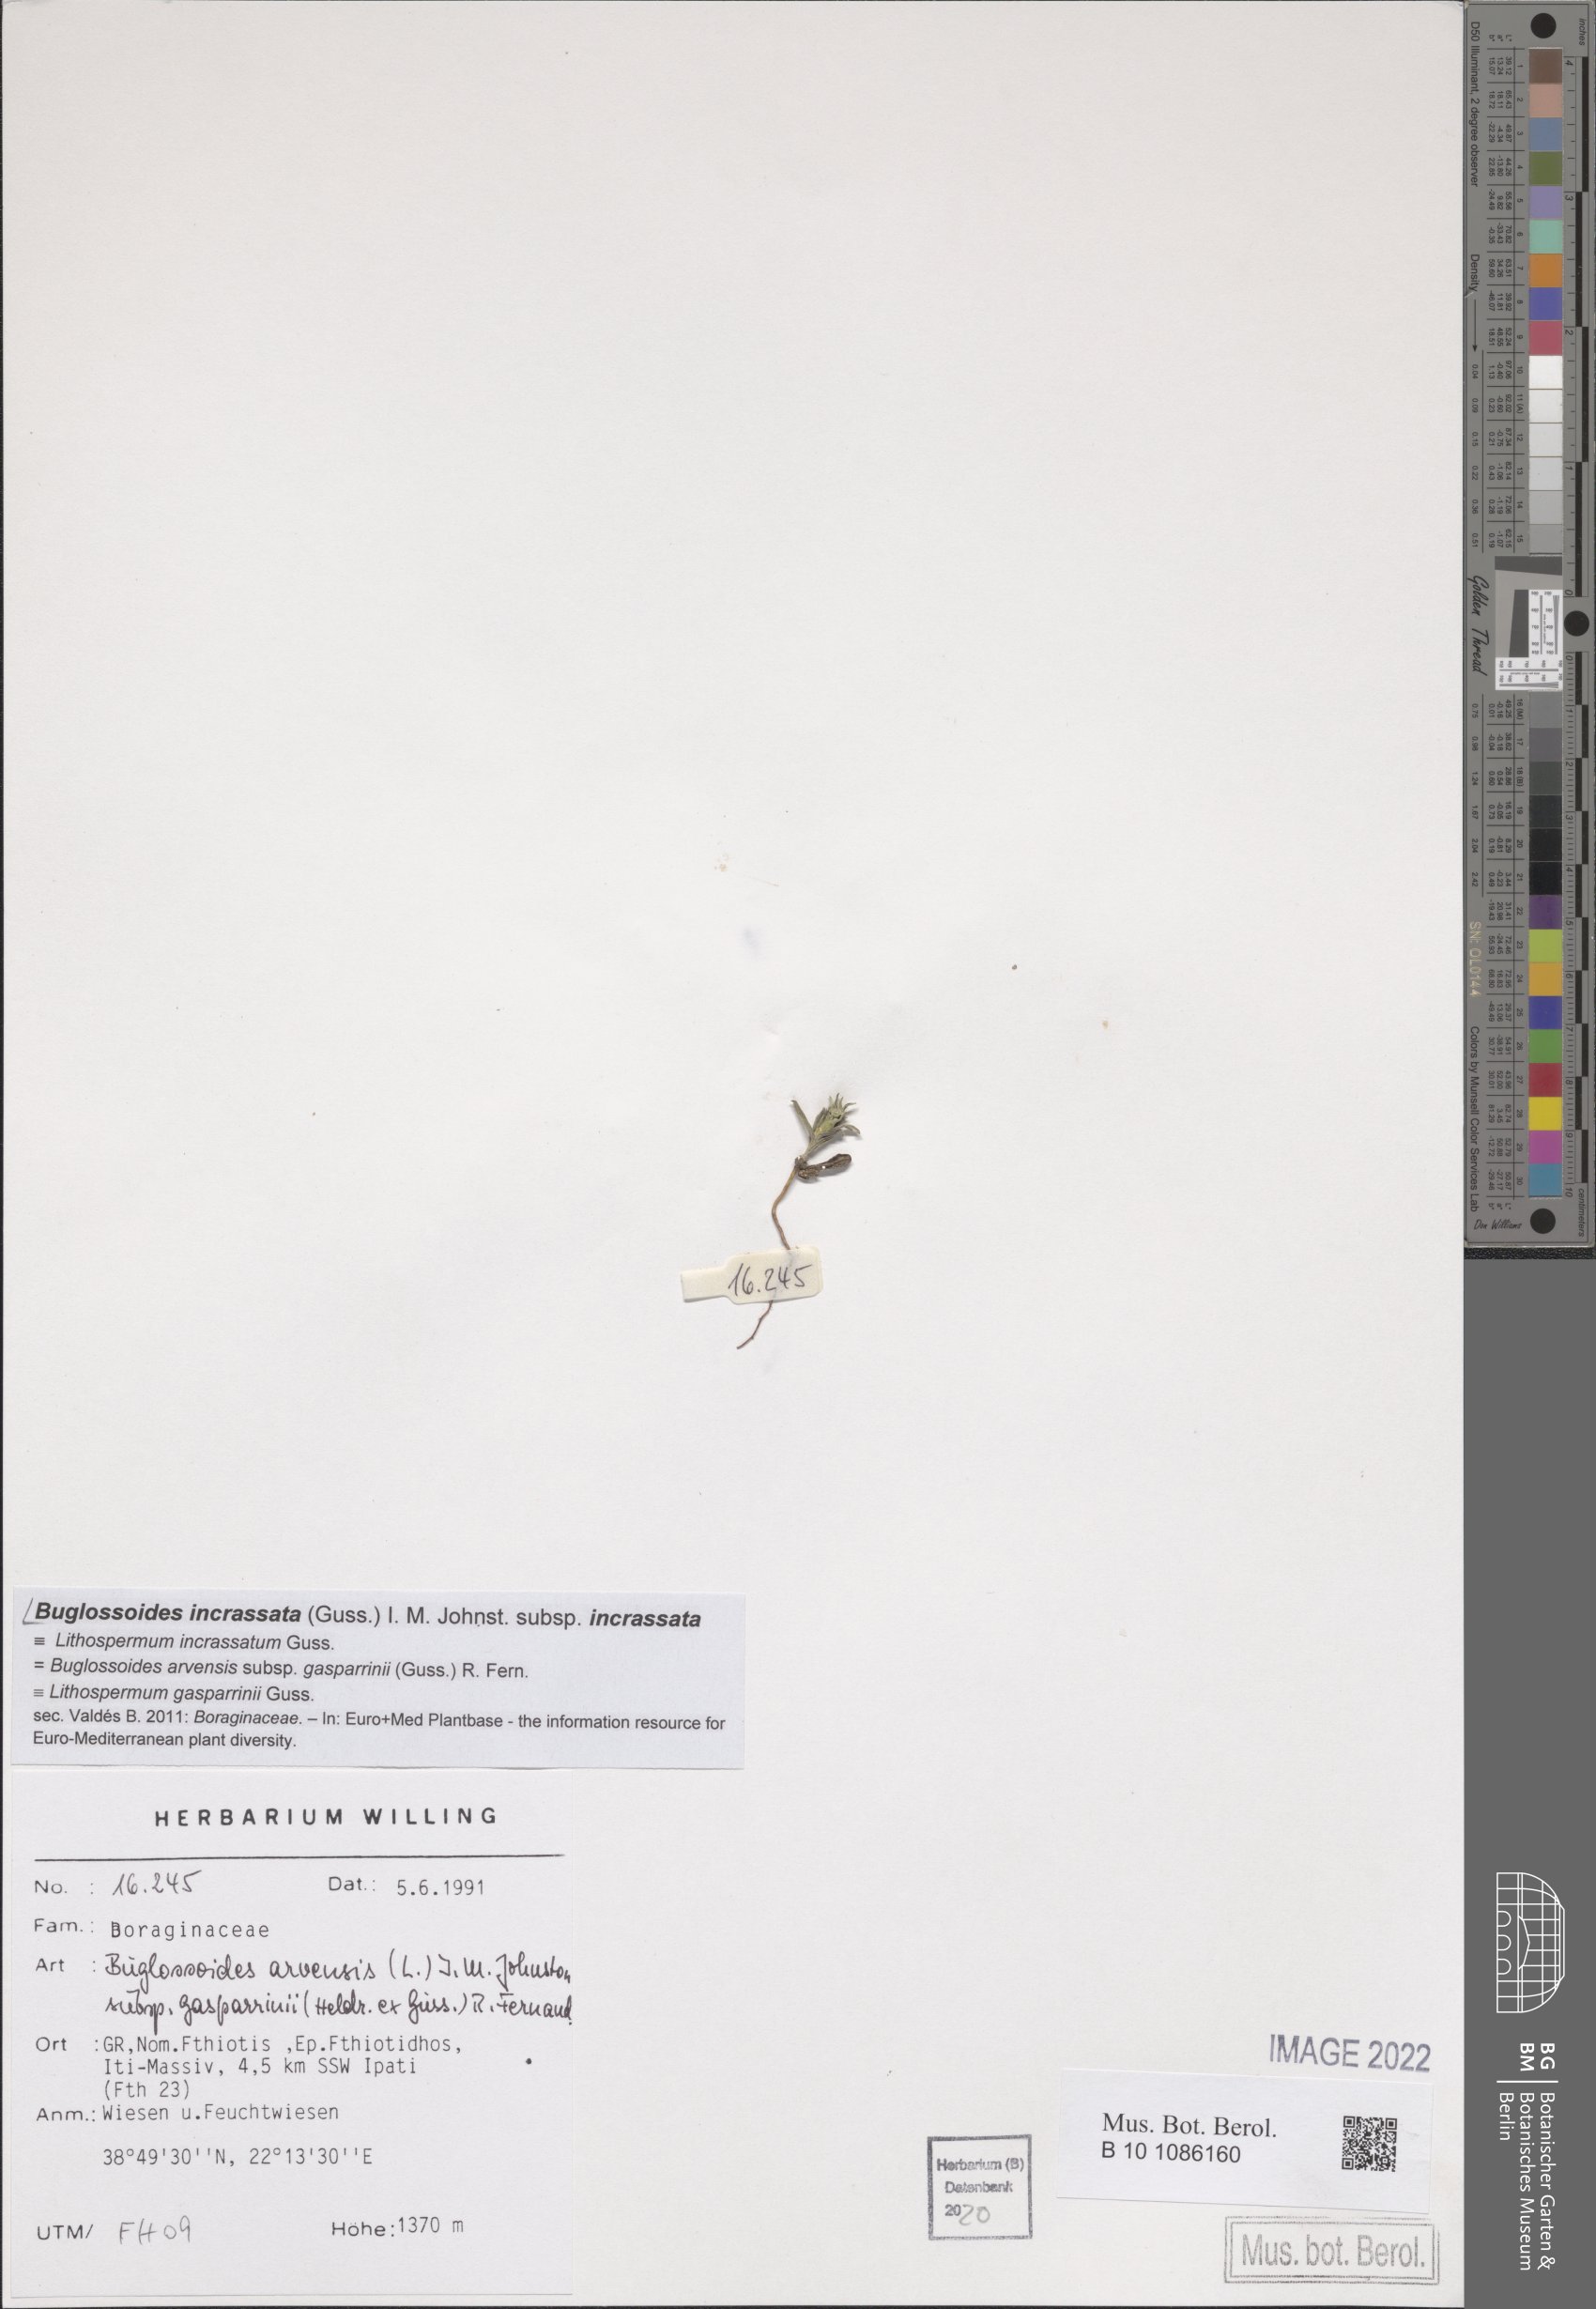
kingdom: Plantae
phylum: Tracheophyta
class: Magnoliopsida
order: Boraginales
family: Boraginaceae
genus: Buglossoides
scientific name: Buglossoides incrassata
